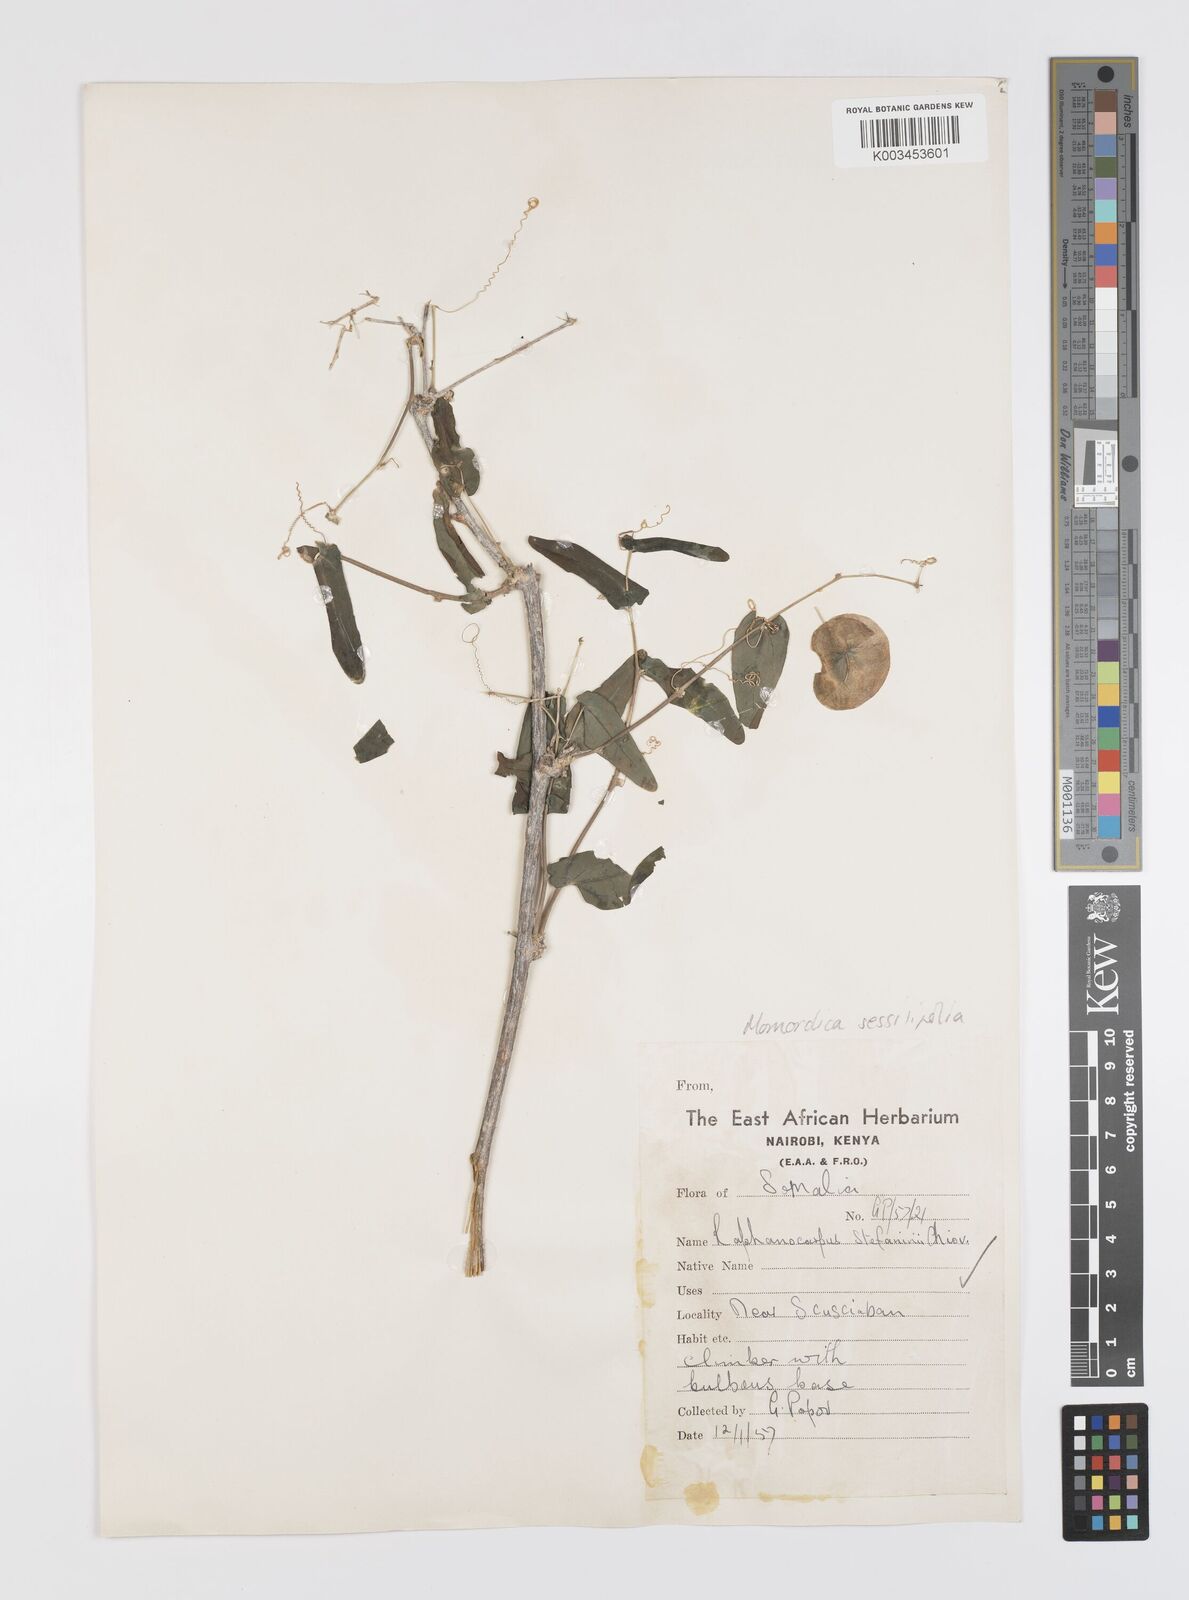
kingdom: Plantae
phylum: Tracheophyta
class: Magnoliopsida
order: Cucurbitales
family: Cucurbitaceae
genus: Momordica
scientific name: Momordica sessilifolia
